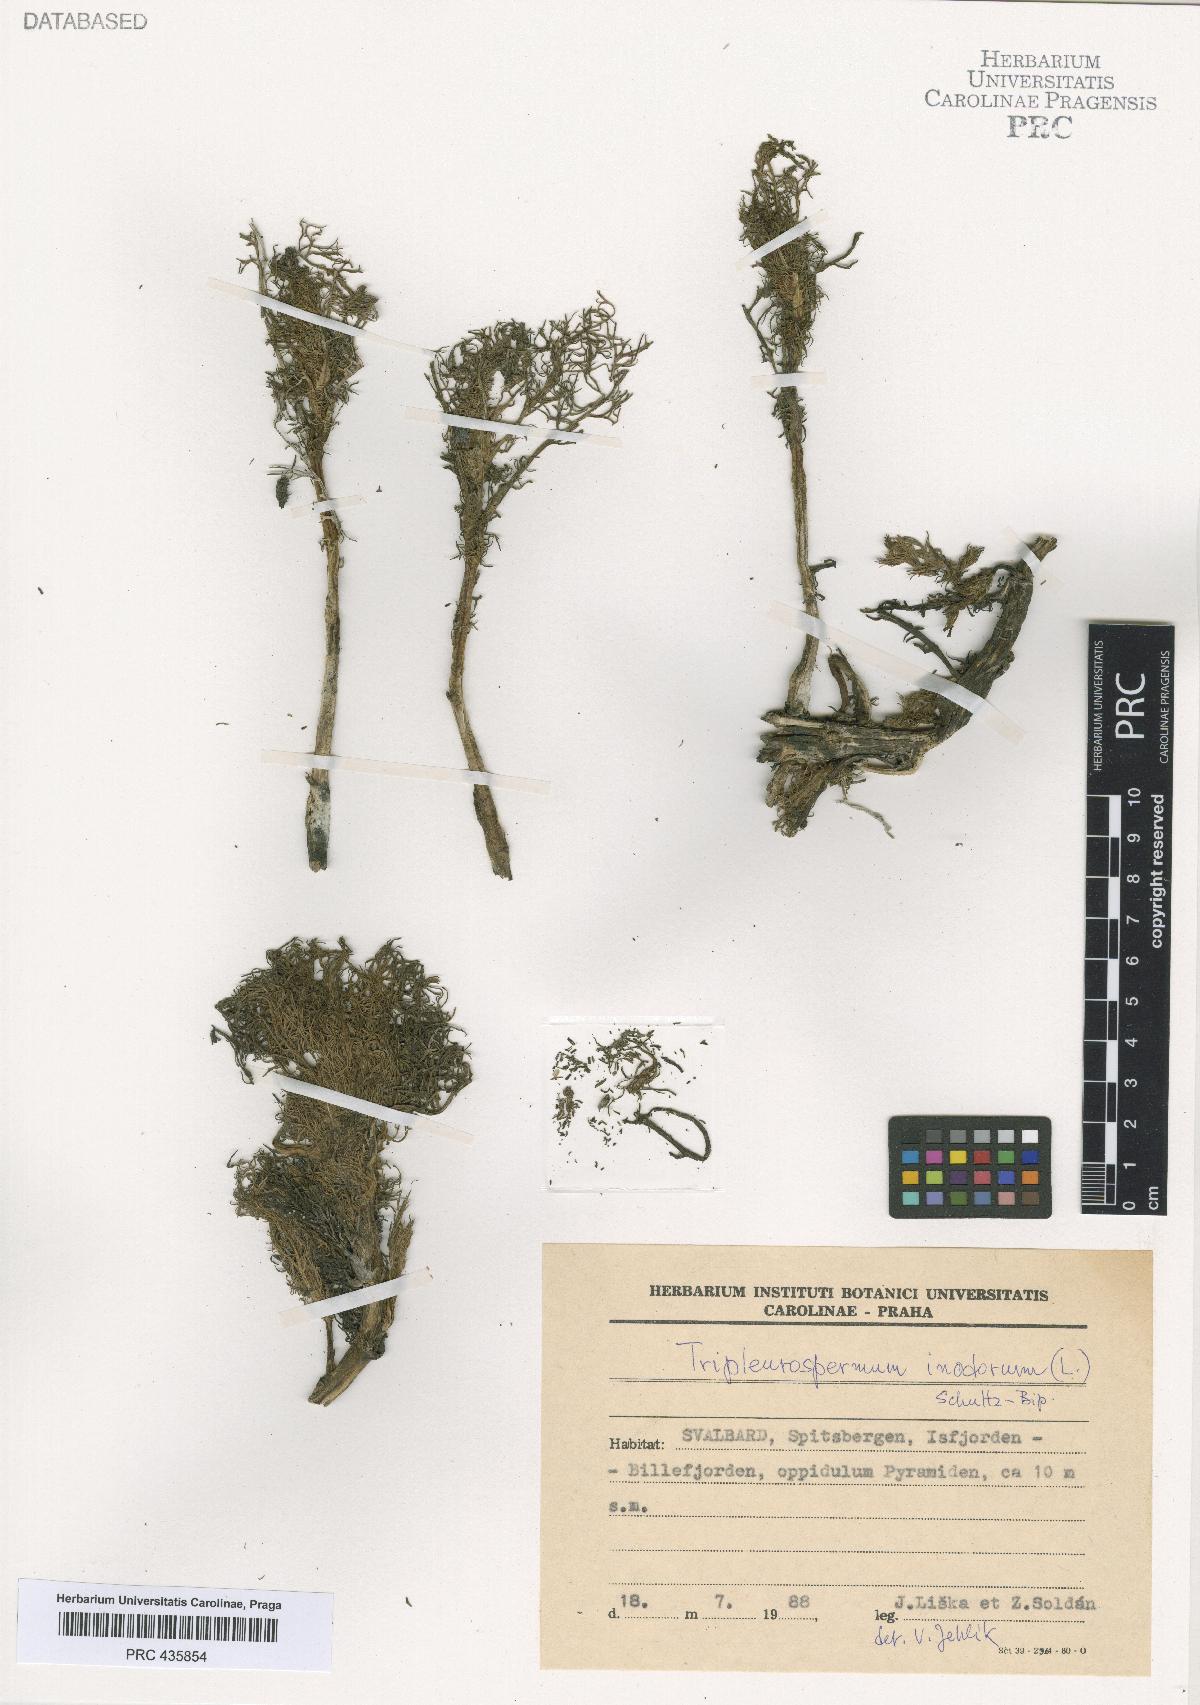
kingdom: Plantae
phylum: Tracheophyta
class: Magnoliopsida
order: Asterales
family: Asteraceae
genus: Tripleurospermum
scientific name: Tripleurospermum inodorum
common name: Scentless mayweed
